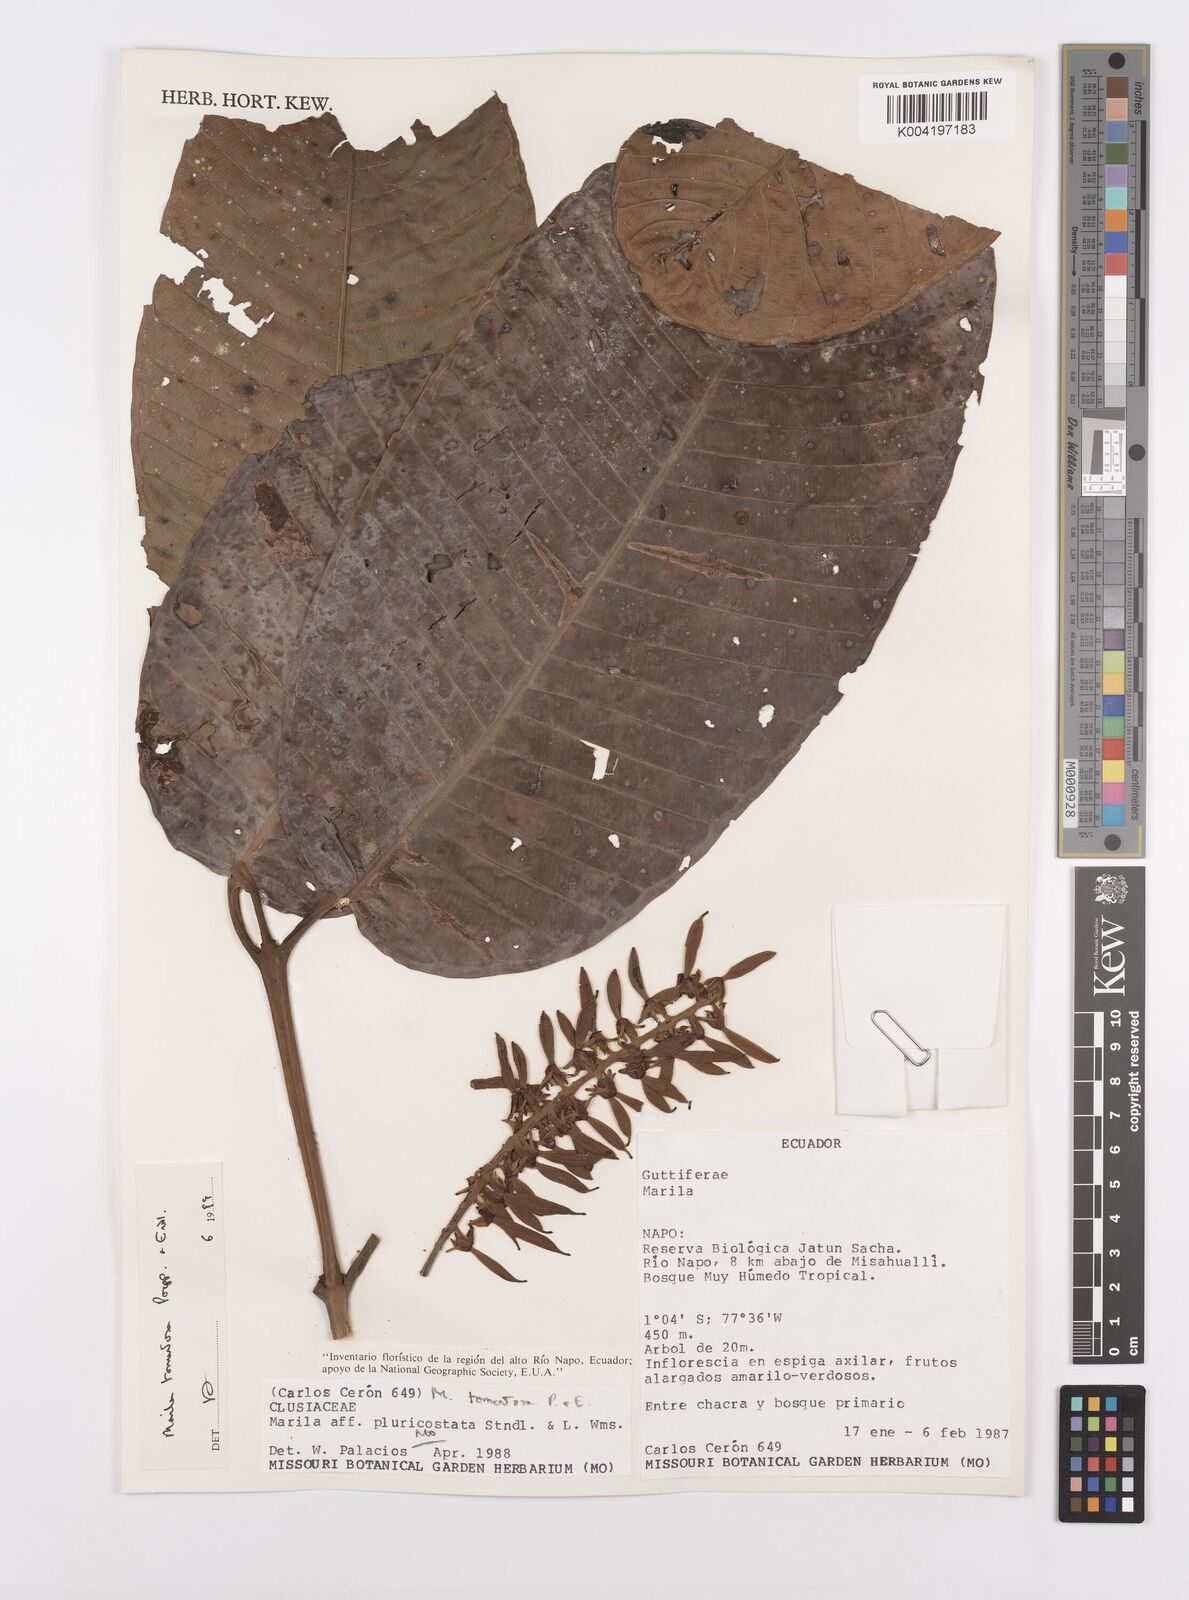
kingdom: Plantae
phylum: Tracheophyta
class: Magnoliopsida
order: Malpighiales
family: Calophyllaceae
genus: Marila
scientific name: Marila tomentosa
